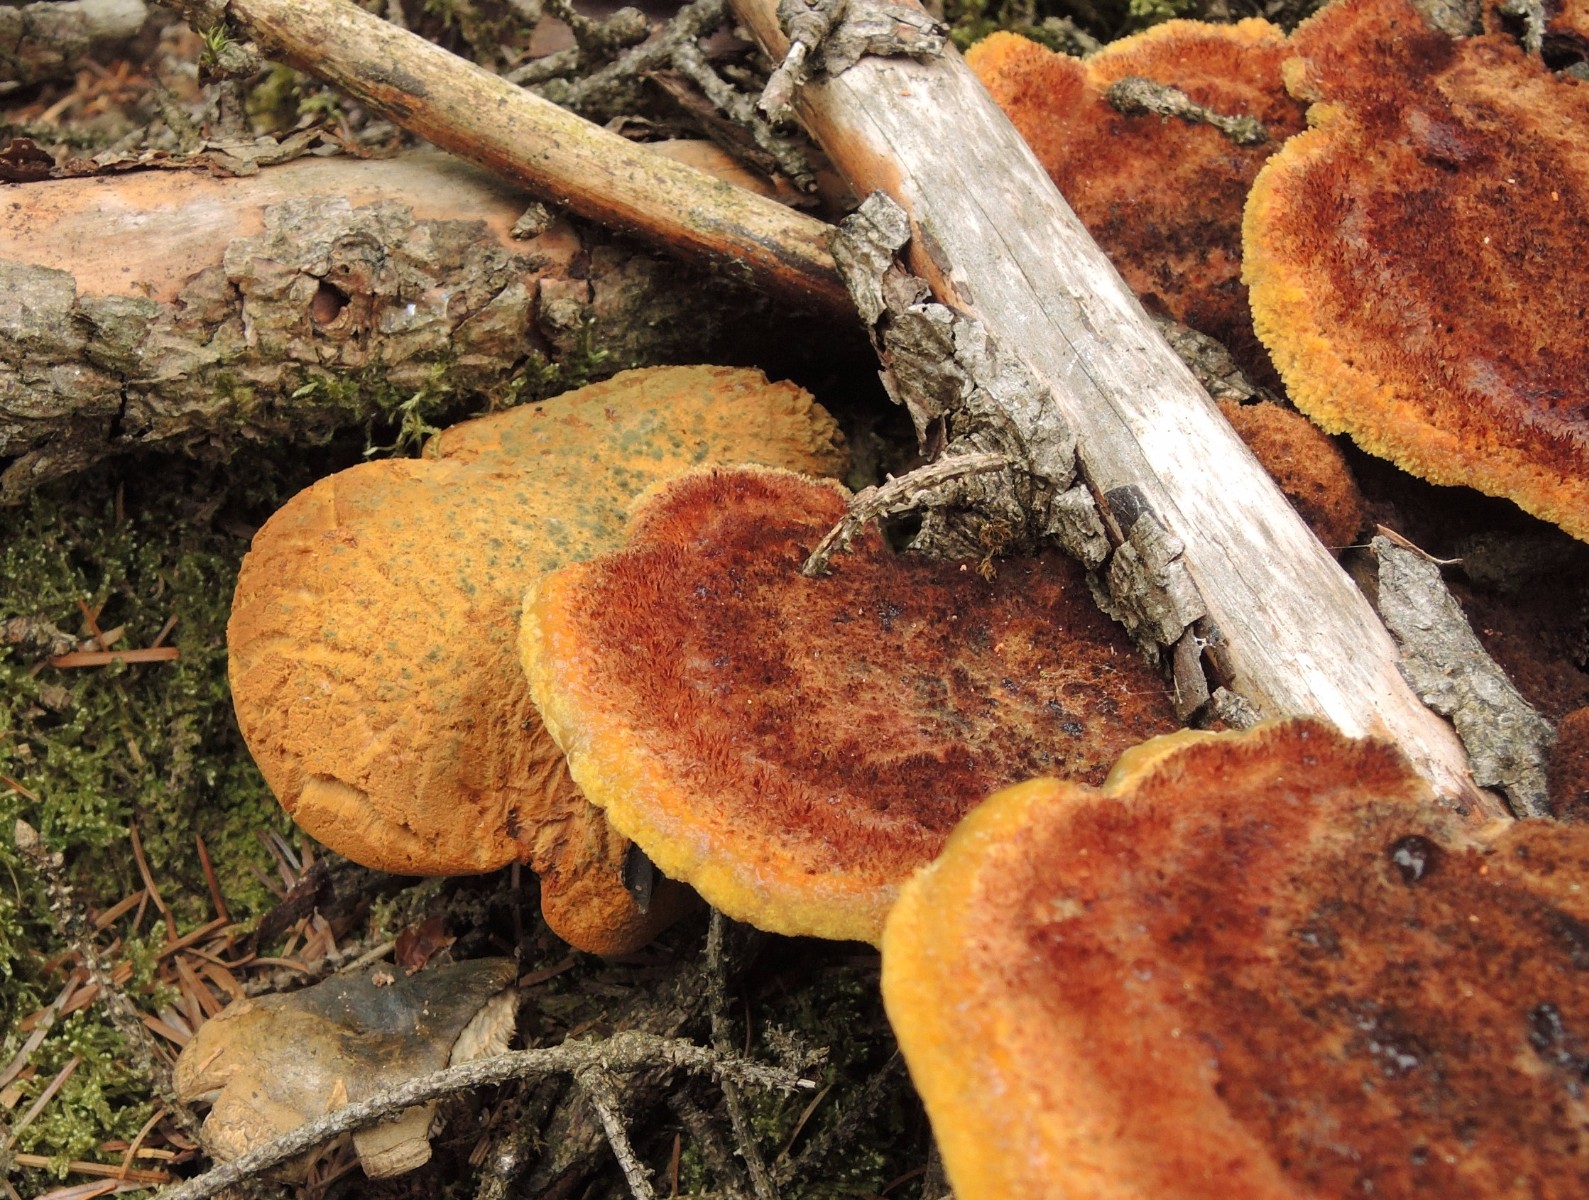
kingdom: Fungi
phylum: Basidiomycota
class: Agaricomycetes
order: Boletales
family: Boletaceae
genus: Buchwaldoboletus
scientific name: Buchwaldoboletus lignicola
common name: stødrørhat
